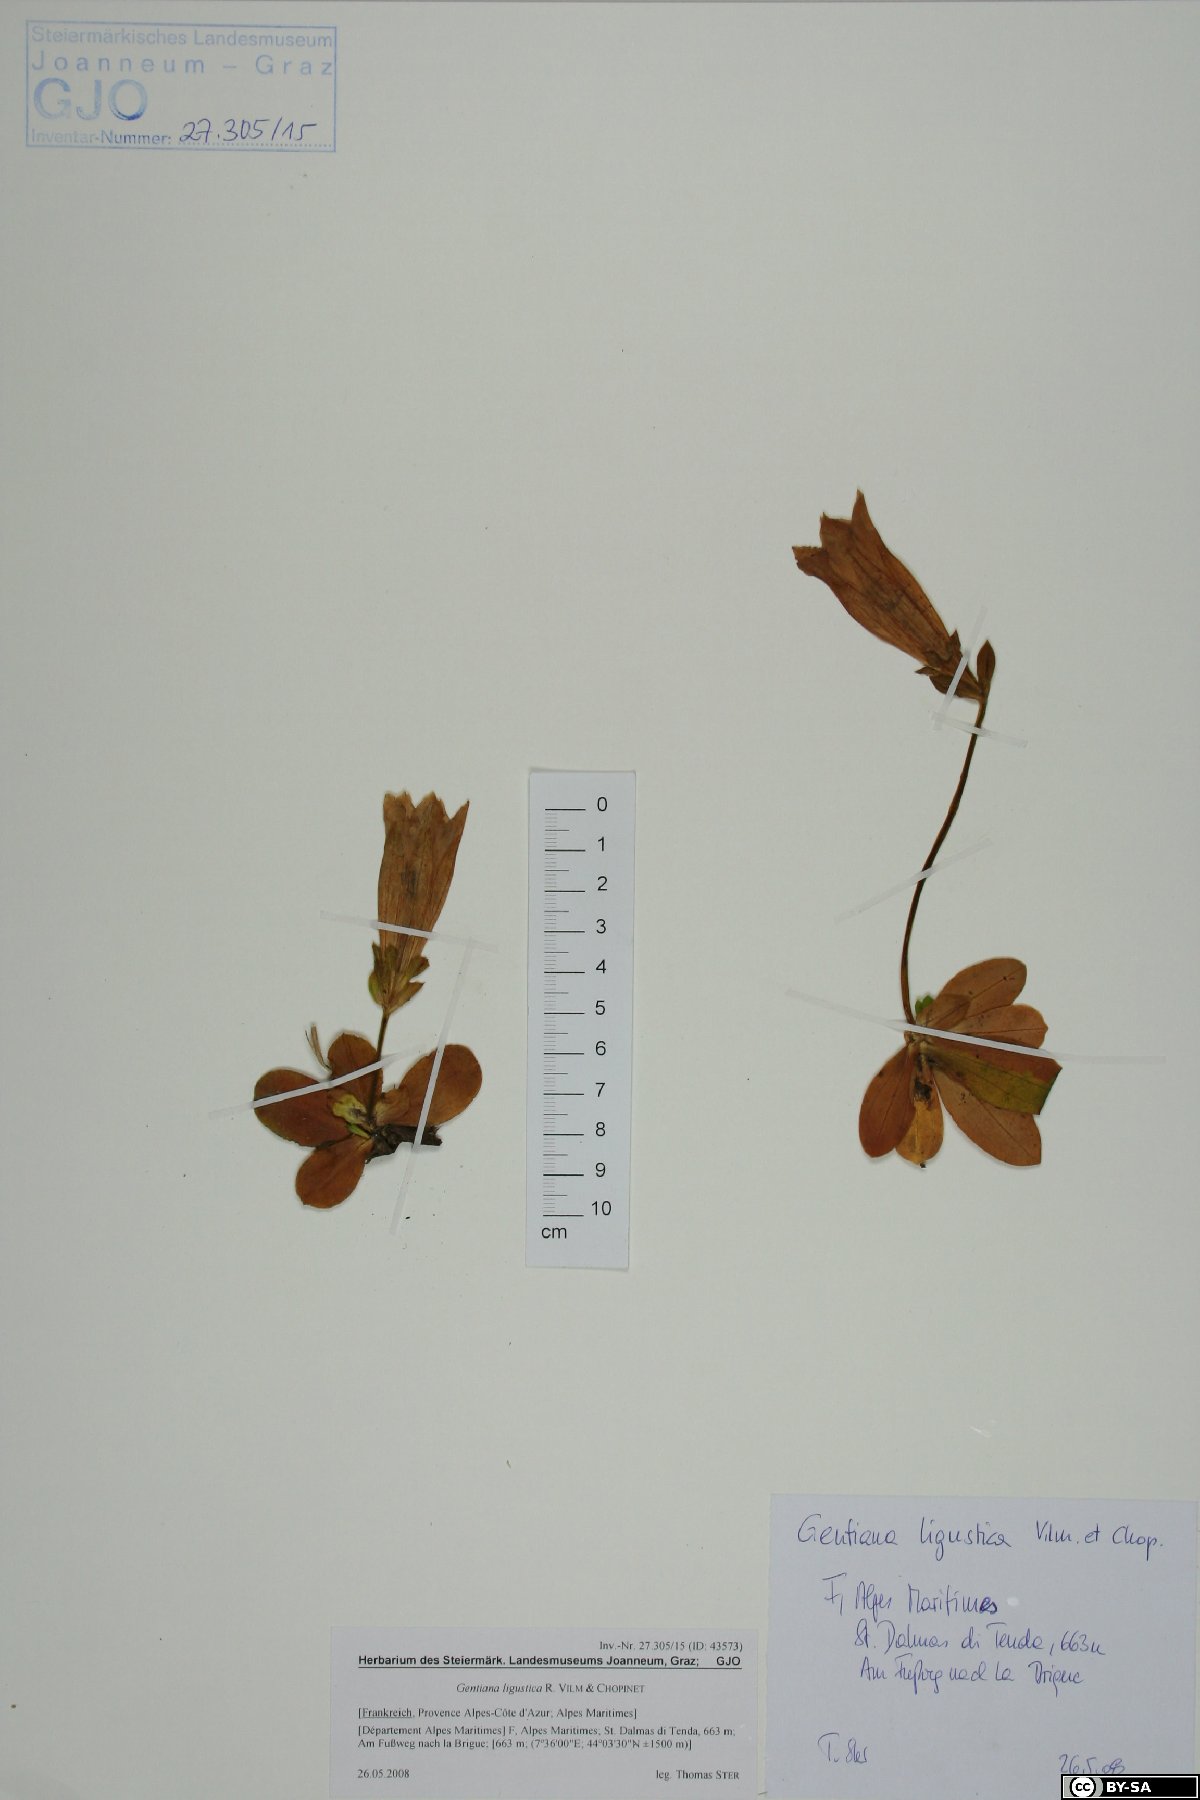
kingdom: Plantae
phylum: Tracheophyta
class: Magnoliopsida
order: Gentianales
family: Gentianaceae
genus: Gentiana
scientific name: Gentiana ligustica
